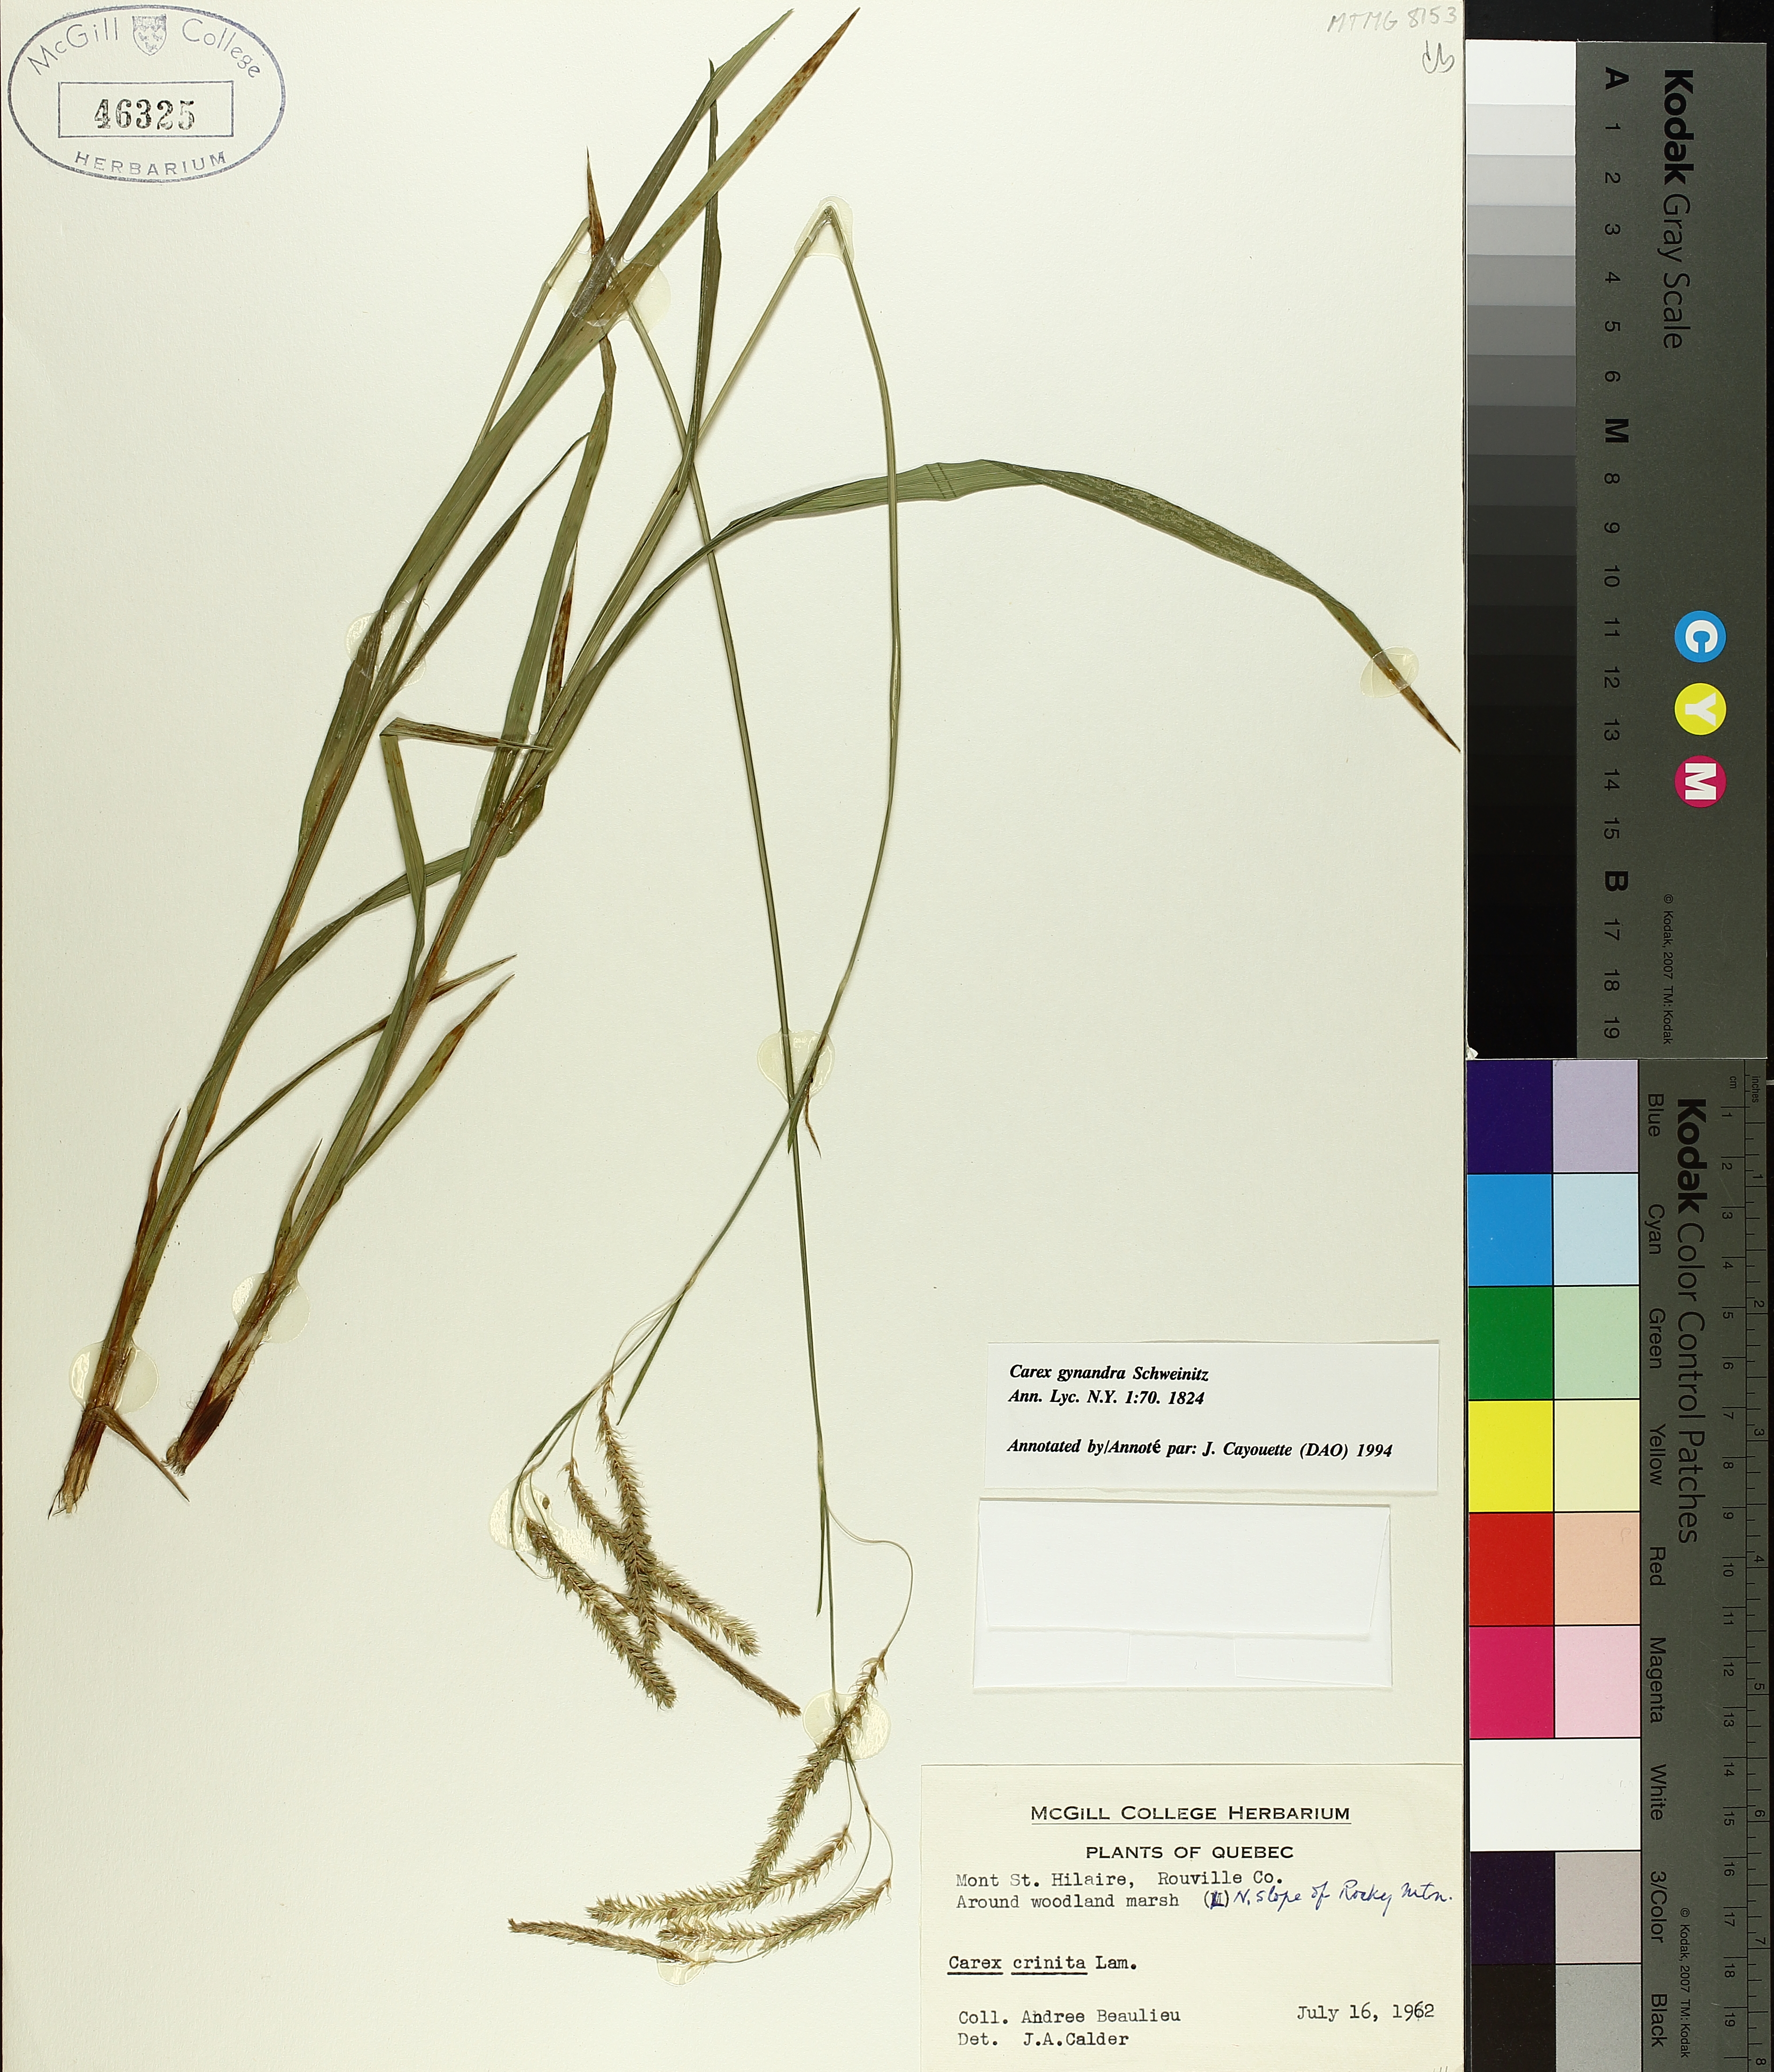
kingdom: Plantae
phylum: Tracheophyta
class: Liliopsida
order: Poales
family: Cyperaceae
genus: Carex
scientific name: Carex gynandra
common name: Nodding sedge
